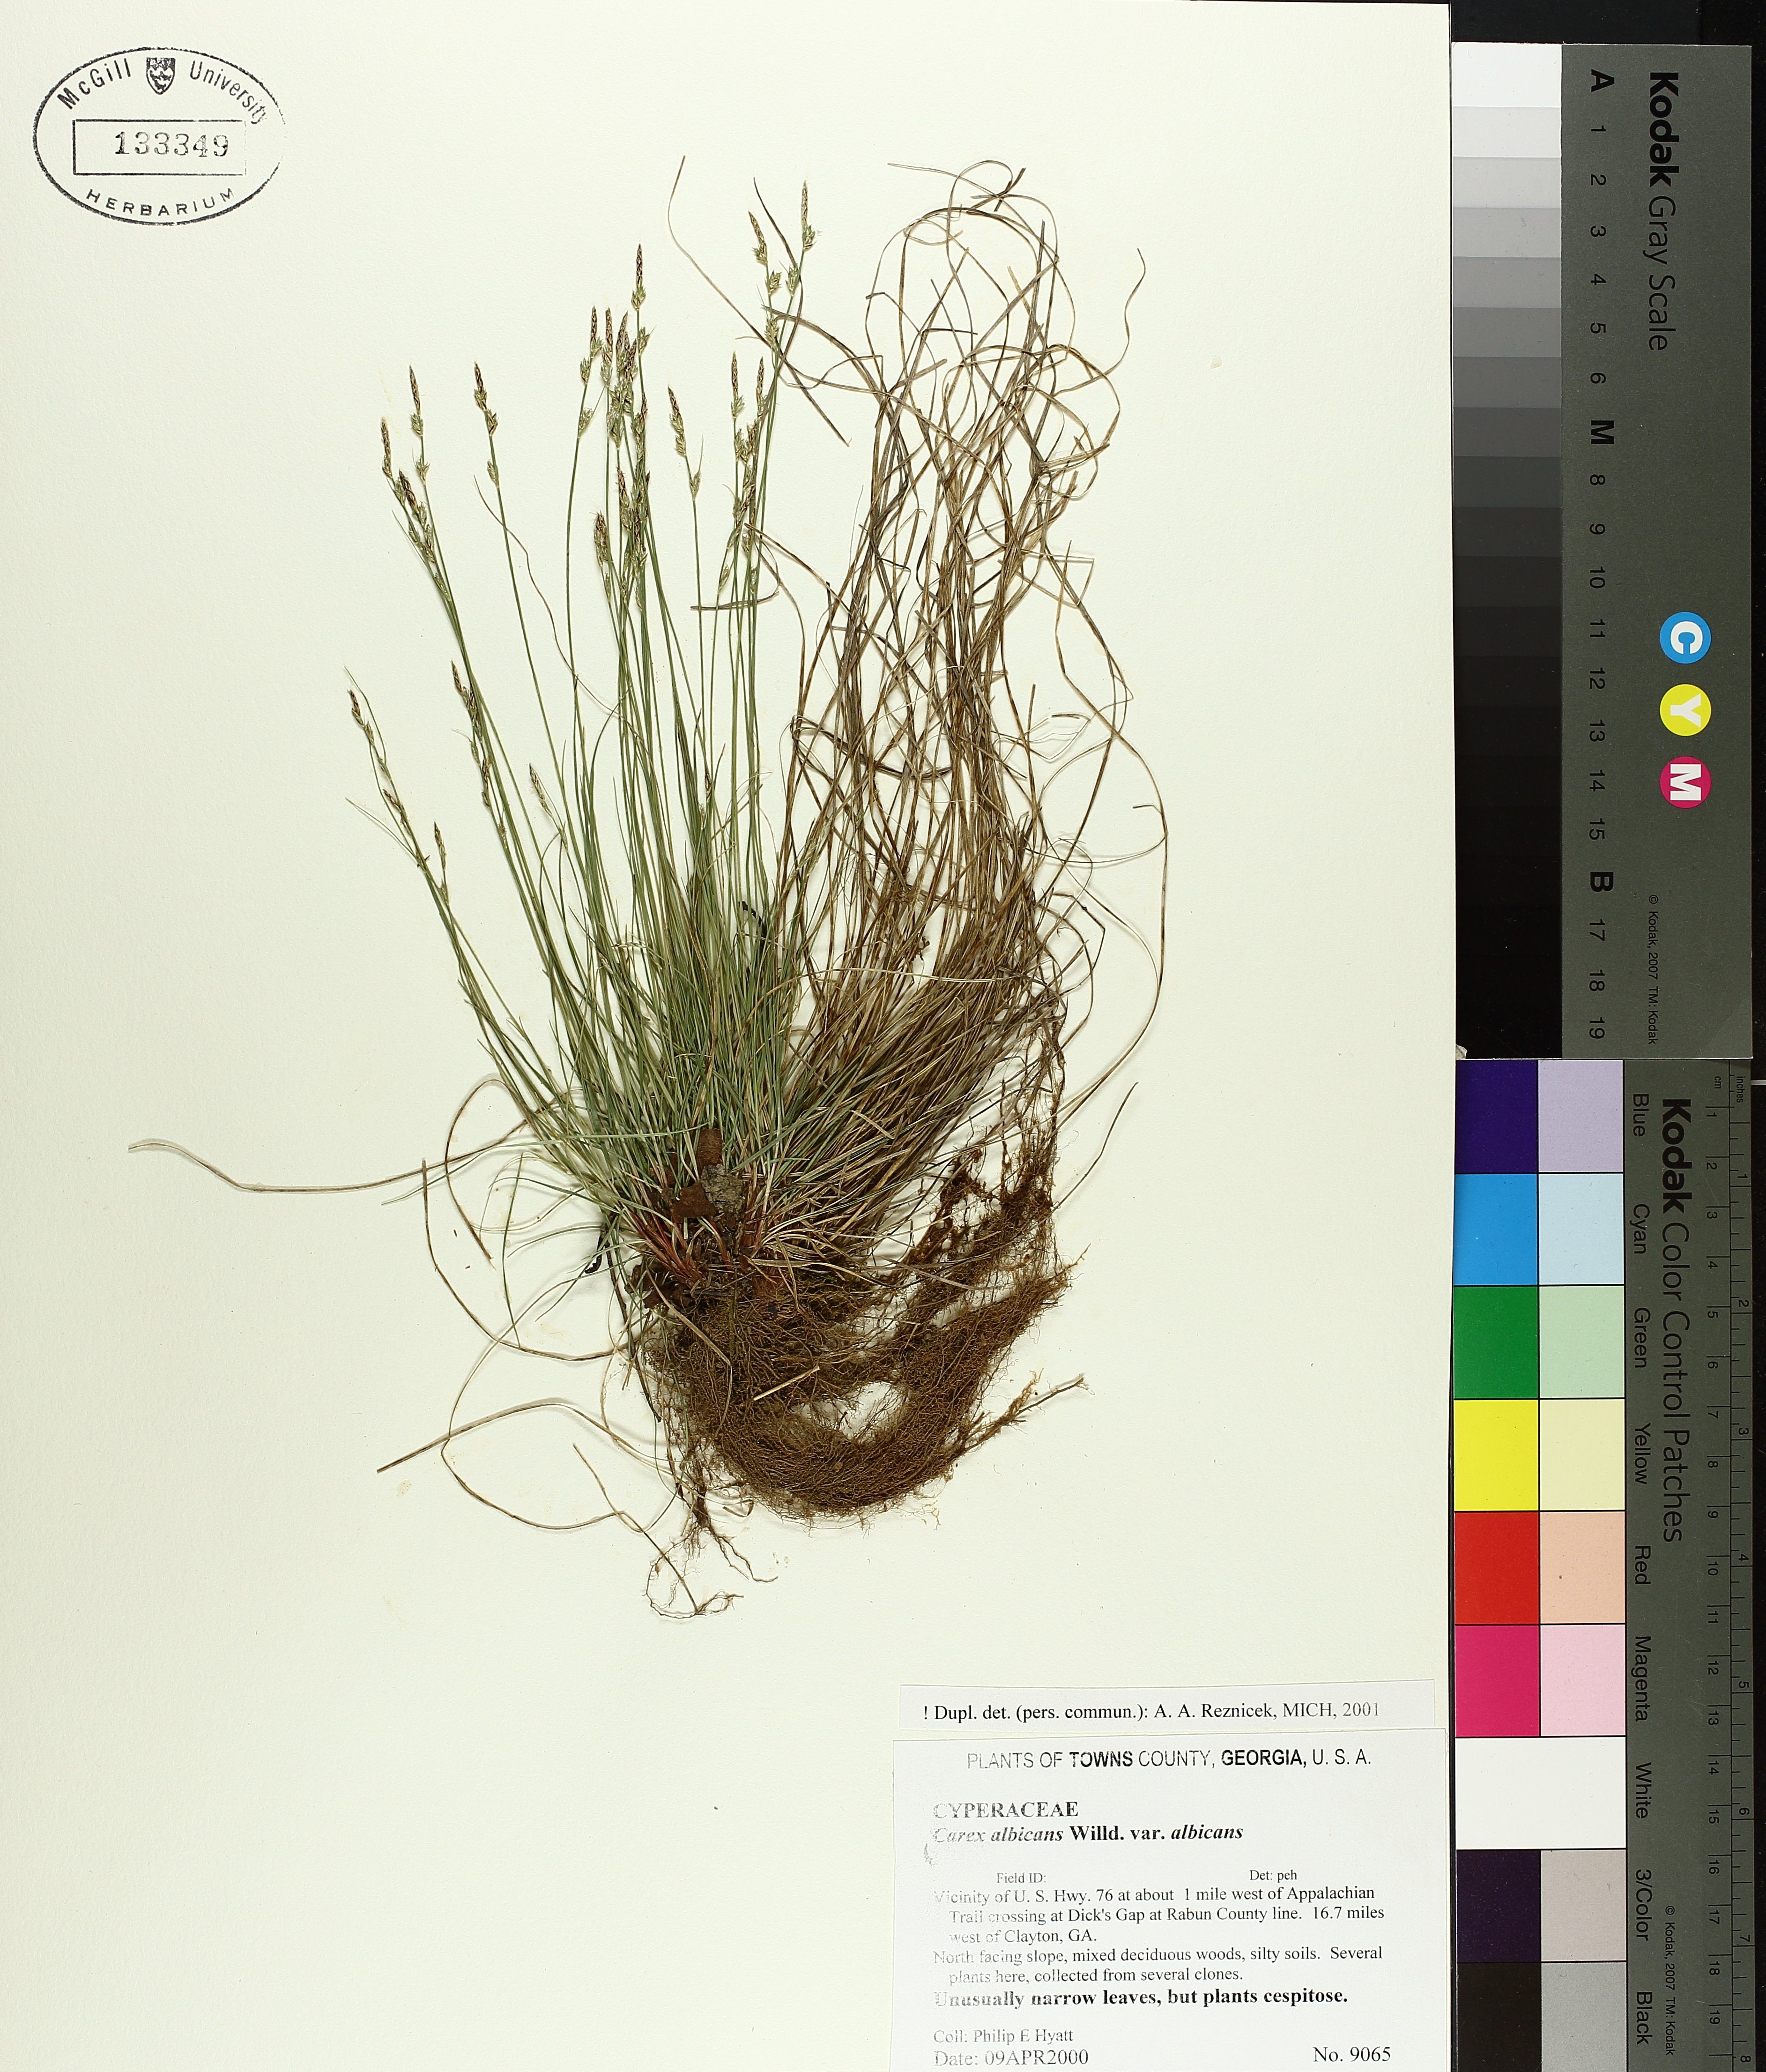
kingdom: Plantae
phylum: Tracheophyta
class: Liliopsida
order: Poales
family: Cyperaceae
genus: Carex
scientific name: Carex albicans
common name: Bellow-beaked sedge
